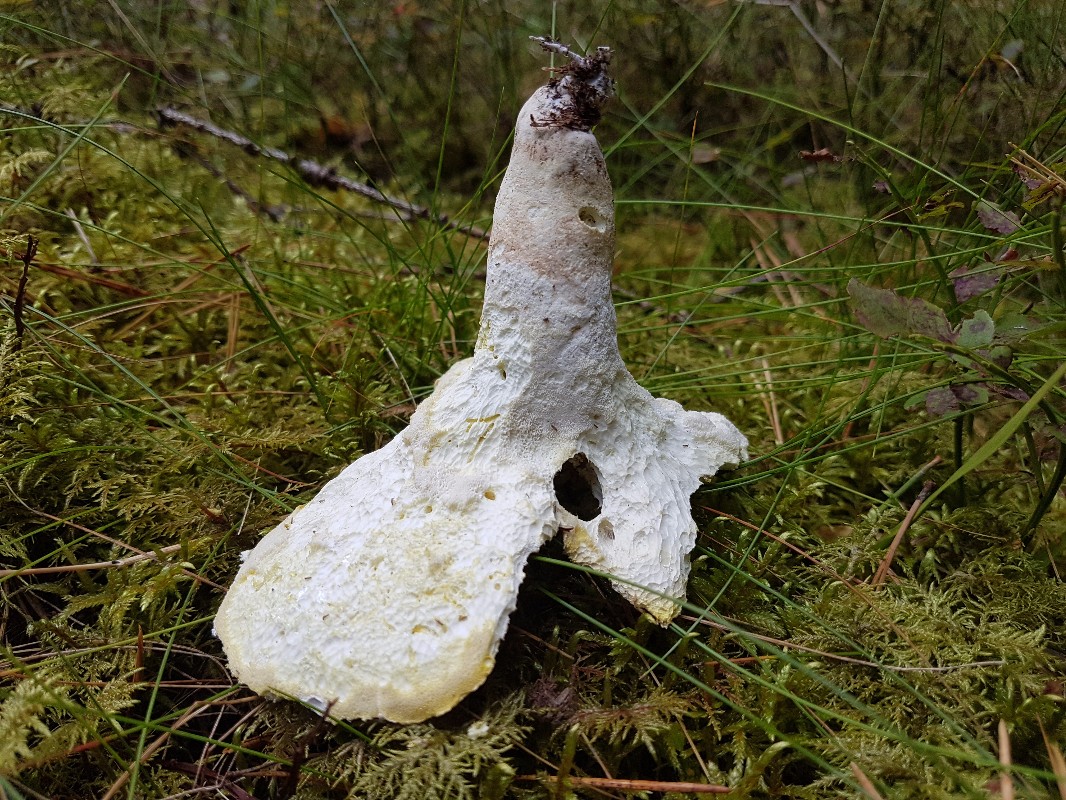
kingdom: Fungi
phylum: Basidiomycota
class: Agaricomycetes
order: Russulales
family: Albatrellaceae
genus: Albatrellus
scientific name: Albatrellus ovinus
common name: hvidlig fåreporesvamp
